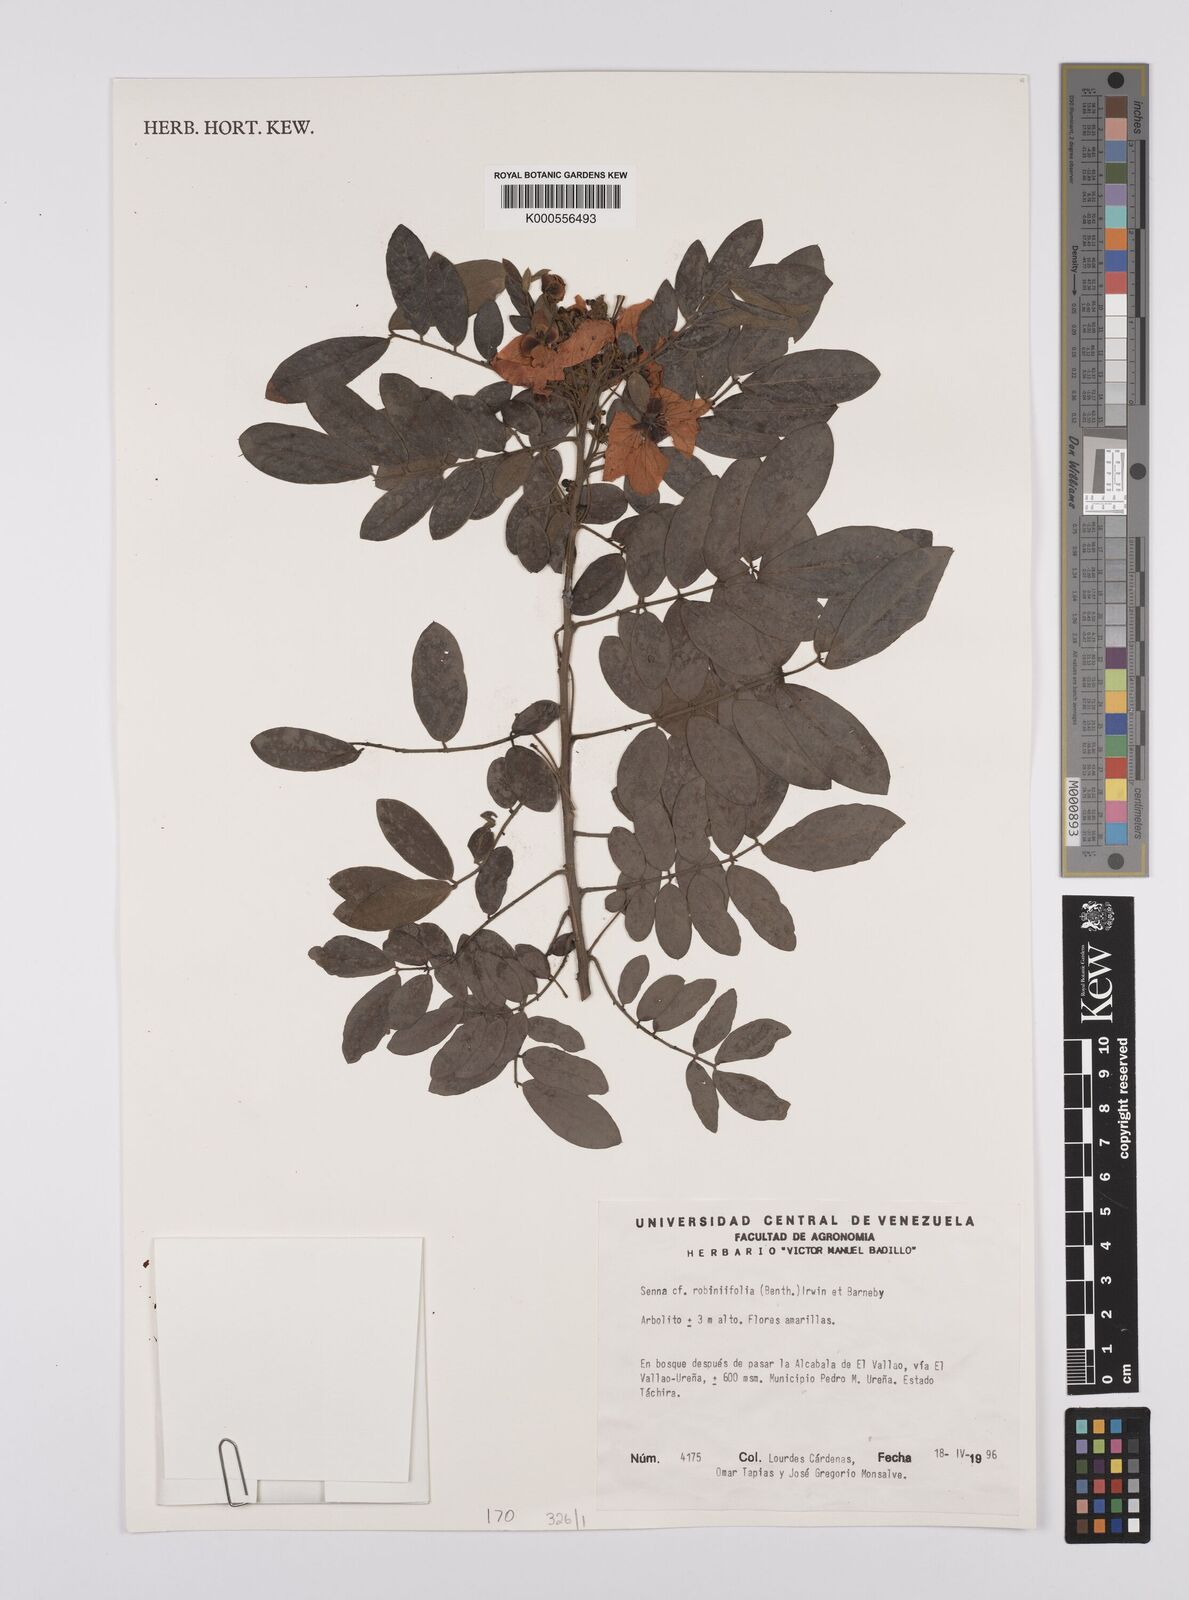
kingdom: Plantae
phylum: Tracheophyta
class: Magnoliopsida
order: Fabales
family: Fabaceae
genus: Senna
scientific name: Senna robiniifolia
